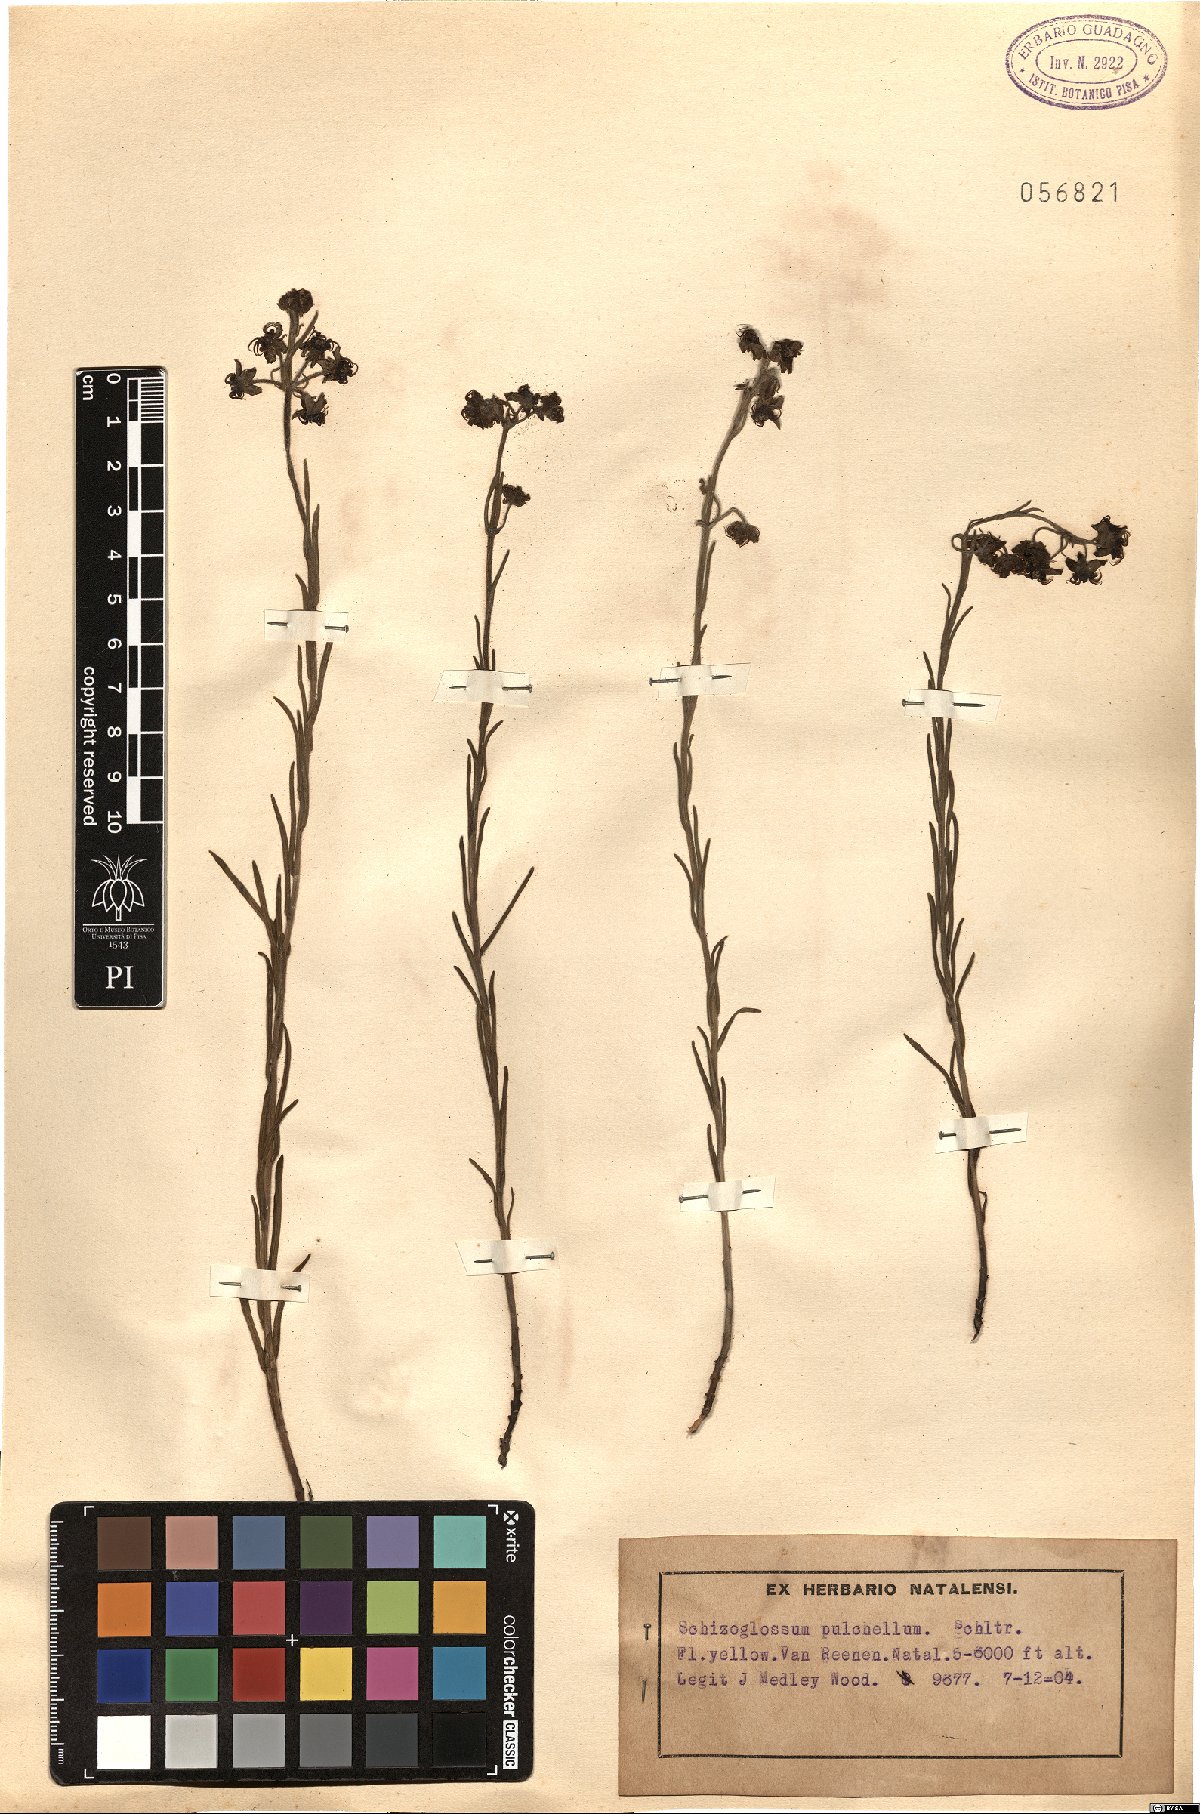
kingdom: Plantae
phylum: Tracheophyta
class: Magnoliopsida
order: Gentianales
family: Apocynaceae
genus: Miraglossum
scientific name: Miraglossum pulchellum
